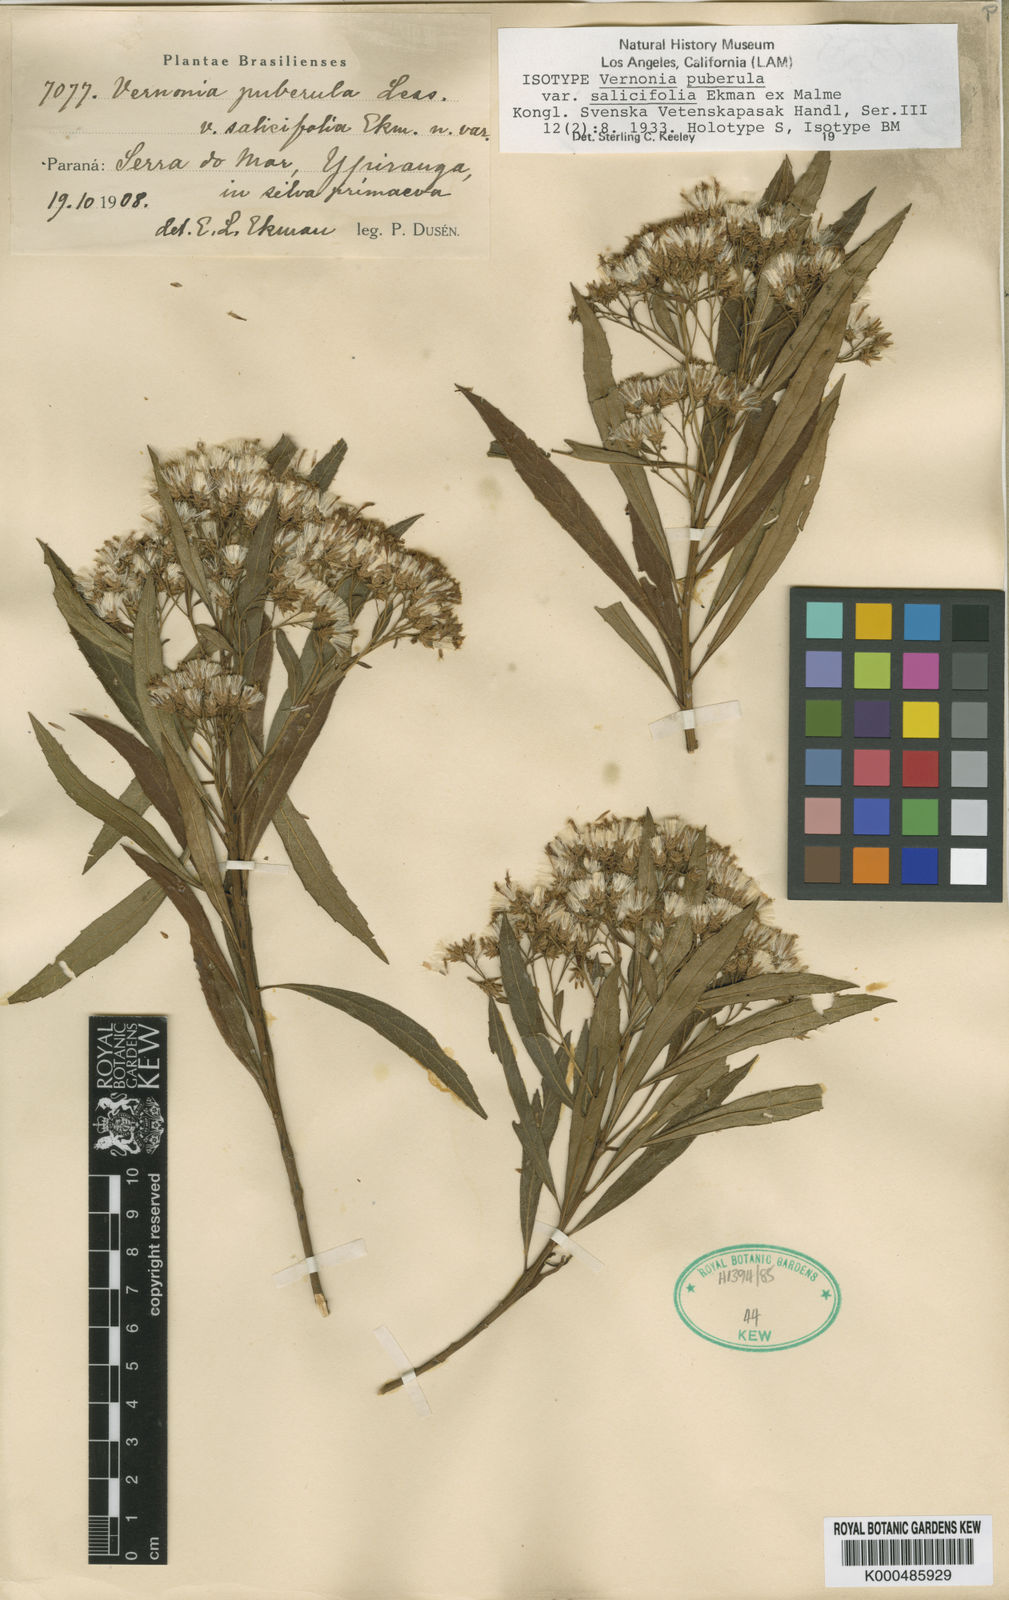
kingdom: Plantae
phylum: Tracheophyta
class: Magnoliopsida
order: Asterales
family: Asteraceae
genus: Vernonanthura
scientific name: Vernonanthura puberula
